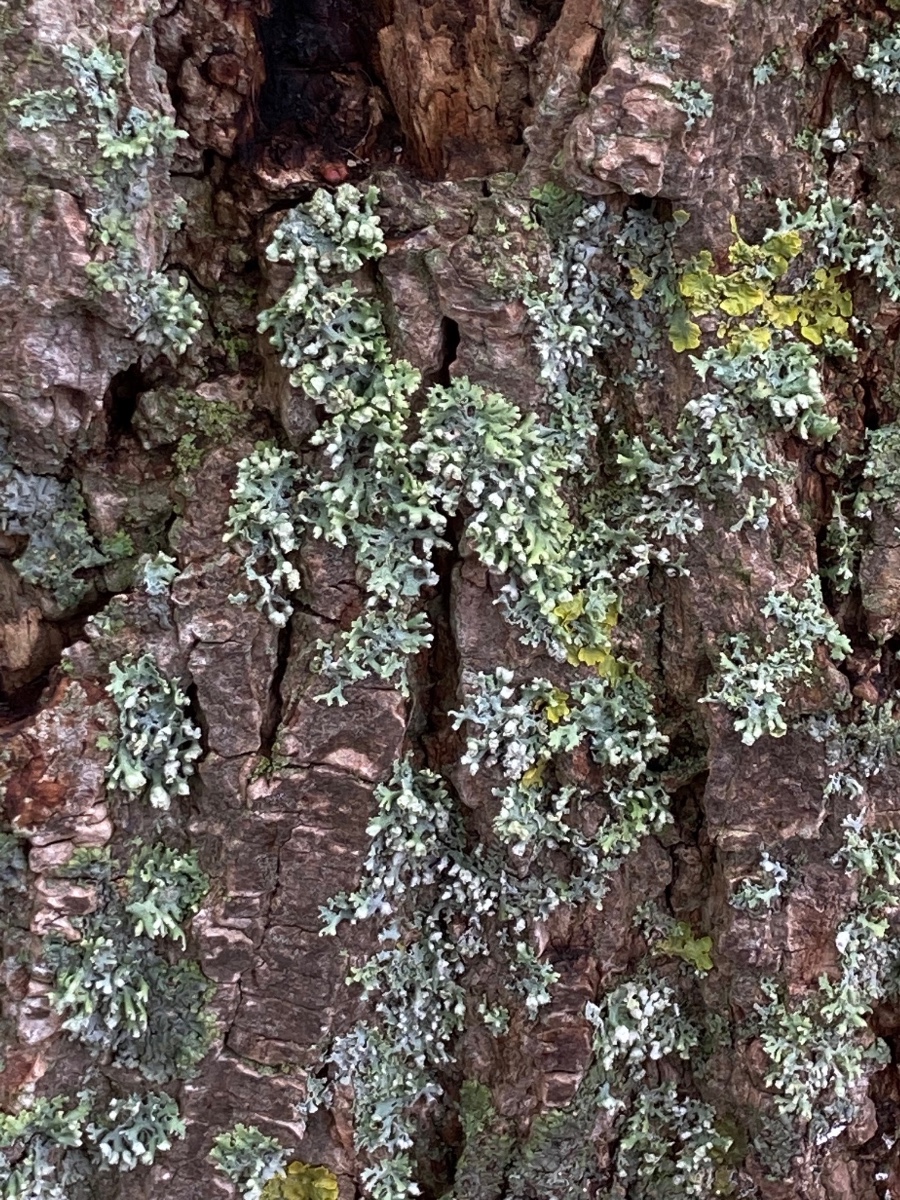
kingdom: Fungi
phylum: Ascomycota
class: Lecanoromycetes
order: Caliciales
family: Physciaceae
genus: Physcia
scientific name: Physcia adscendens
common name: hætte-rosetlav
